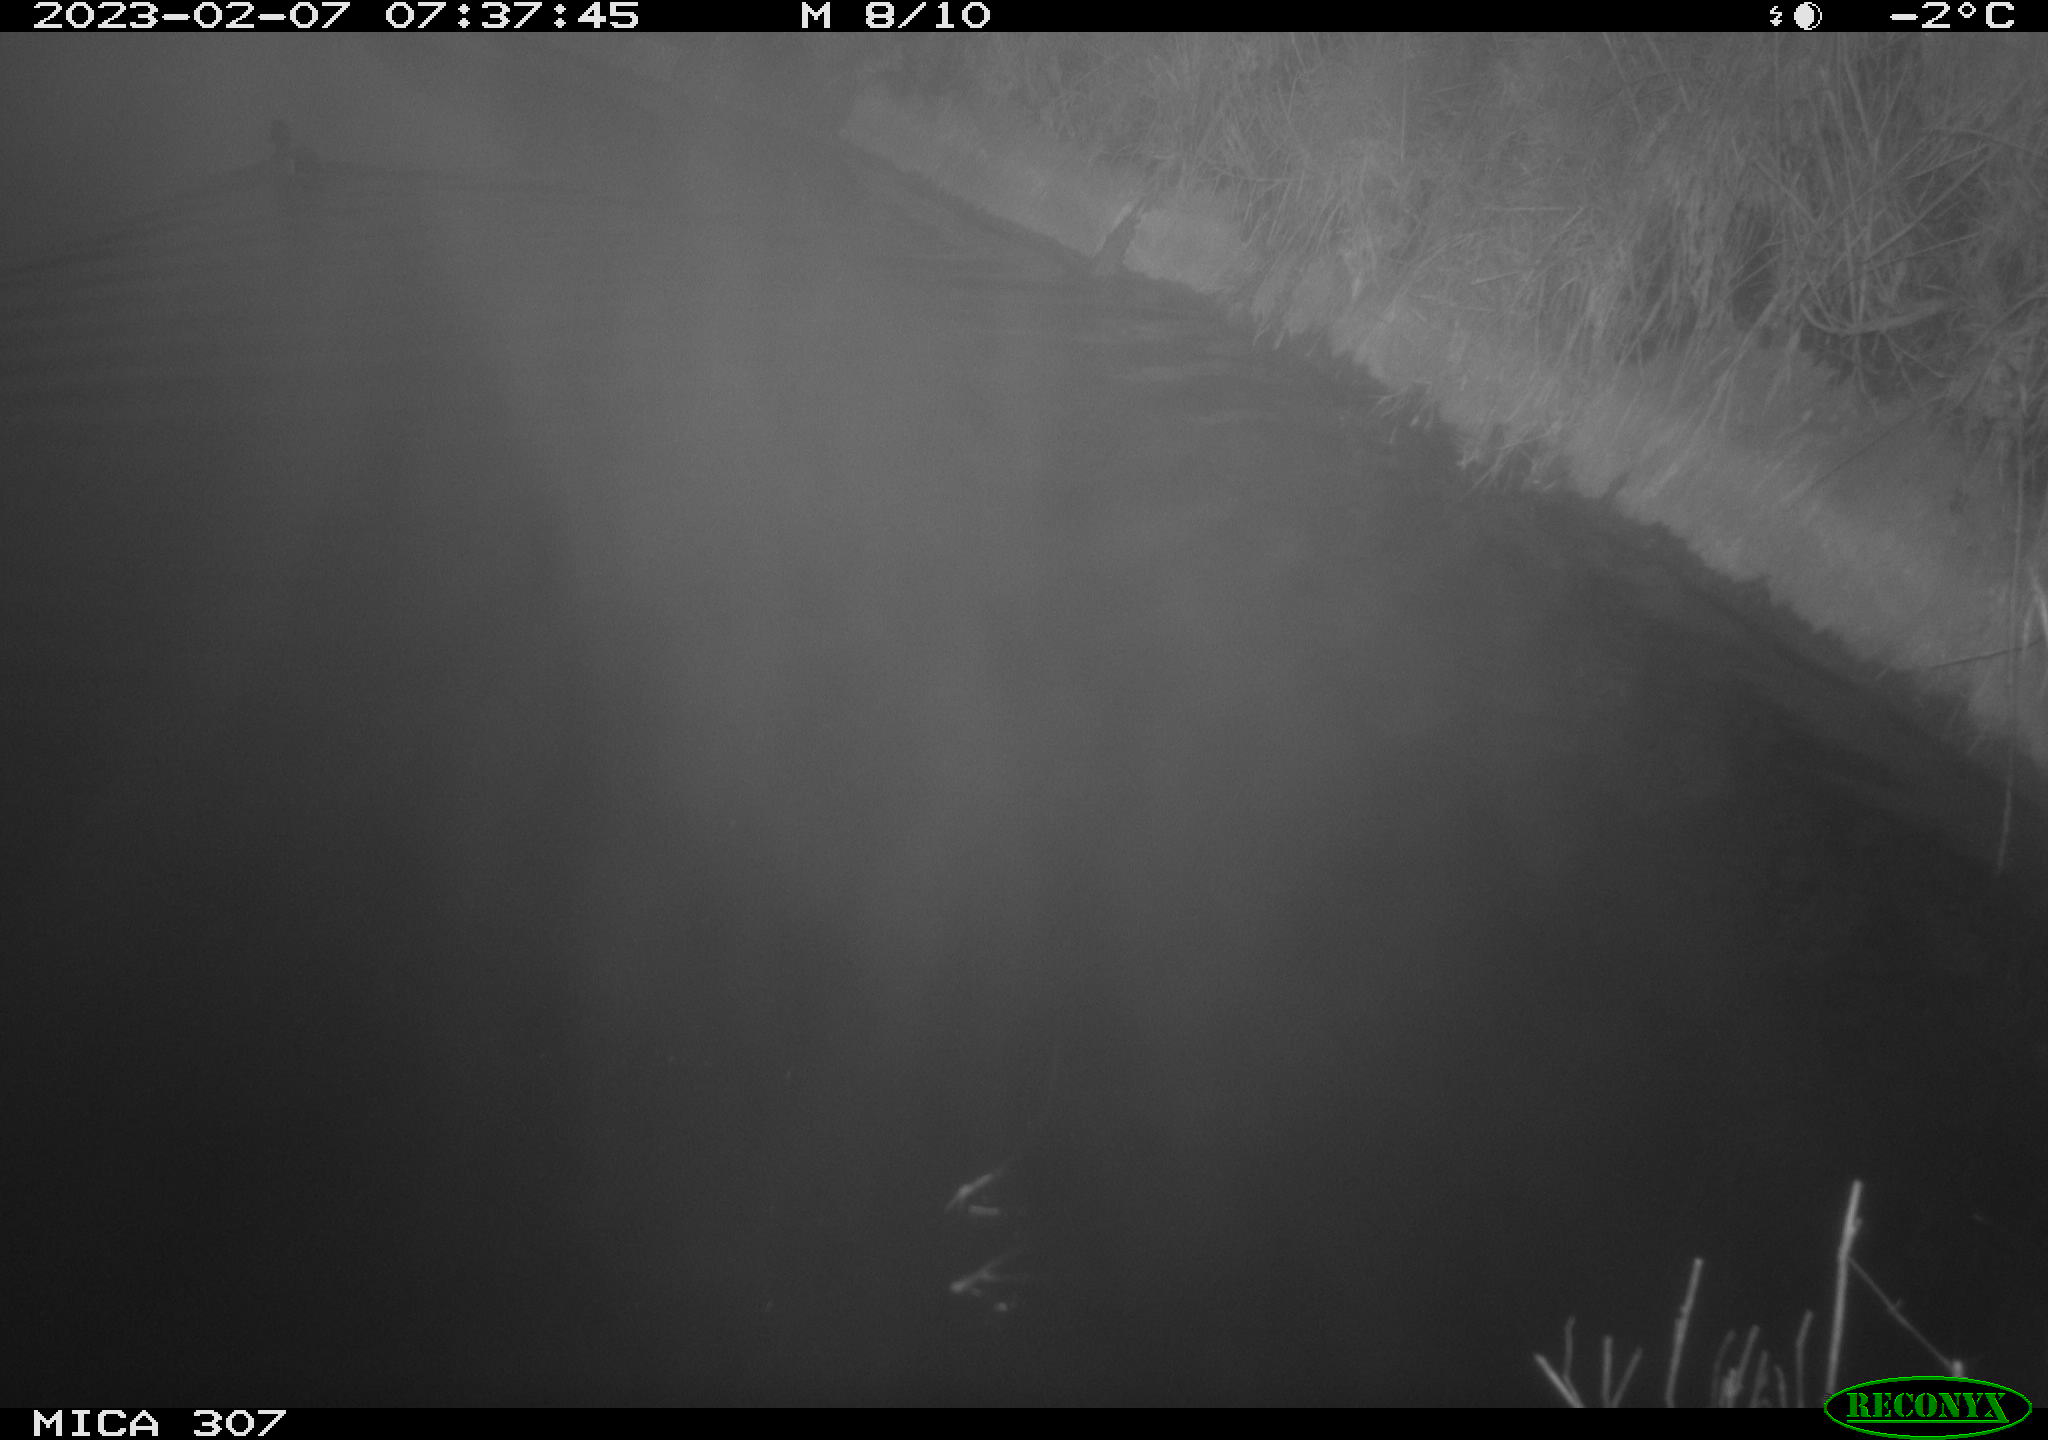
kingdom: Animalia
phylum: Chordata
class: Aves
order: Anseriformes
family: Anatidae
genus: Anas
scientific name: Anas
